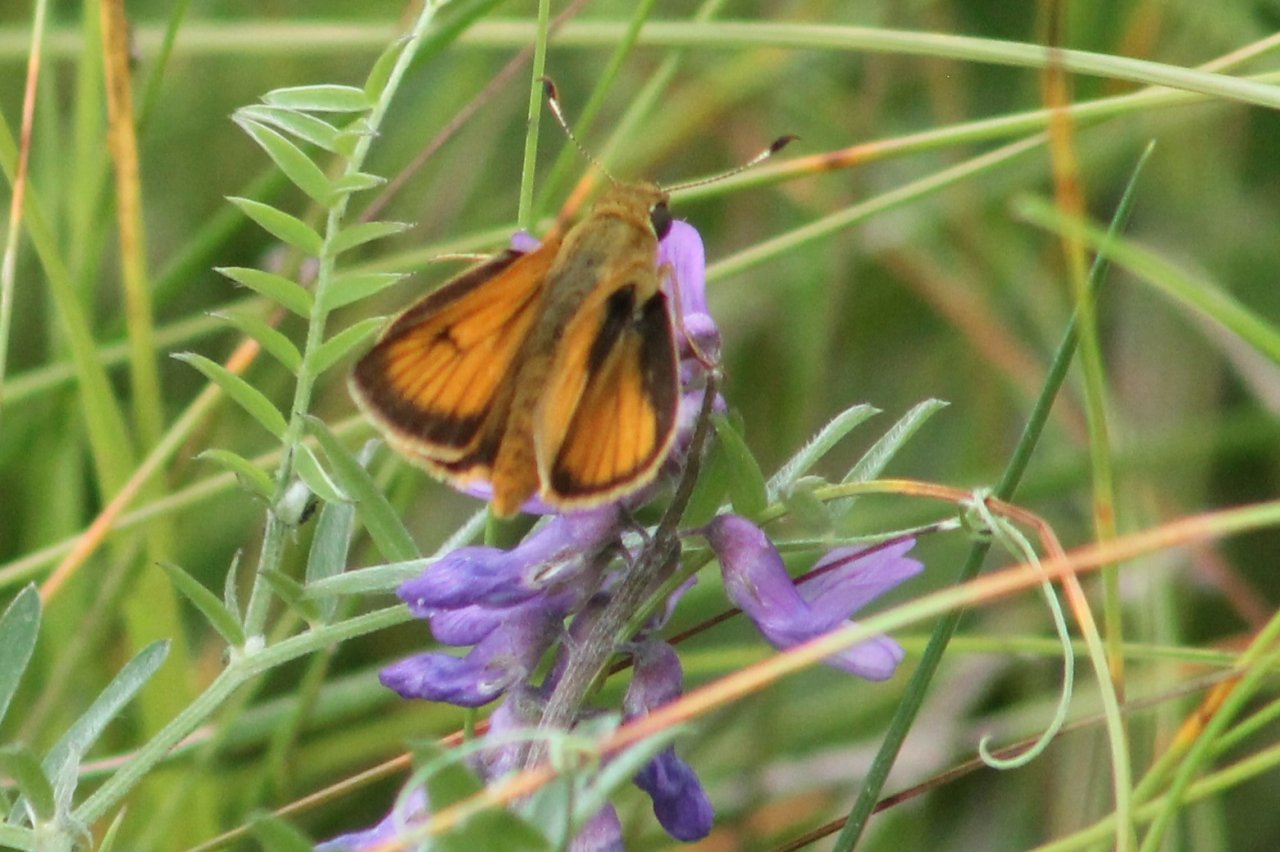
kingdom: Animalia
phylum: Arthropoda
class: Insecta
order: Lepidoptera
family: Hesperiidae
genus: Atrytone
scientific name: Atrytone delaware
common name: Delaware Skipper
